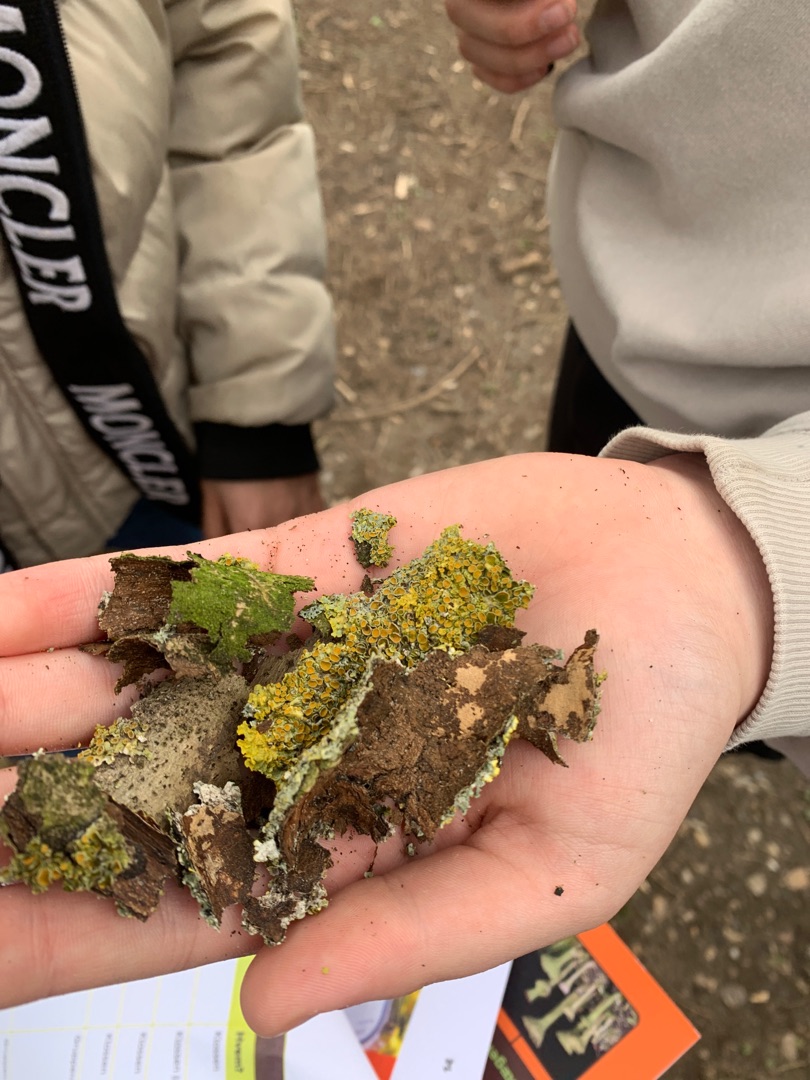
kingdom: Fungi
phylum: Ascomycota
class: Lecanoromycetes
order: Teloschistales
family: Teloschistaceae
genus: Xanthoria
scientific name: Xanthoria parietina
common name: Almindelig væggelav
